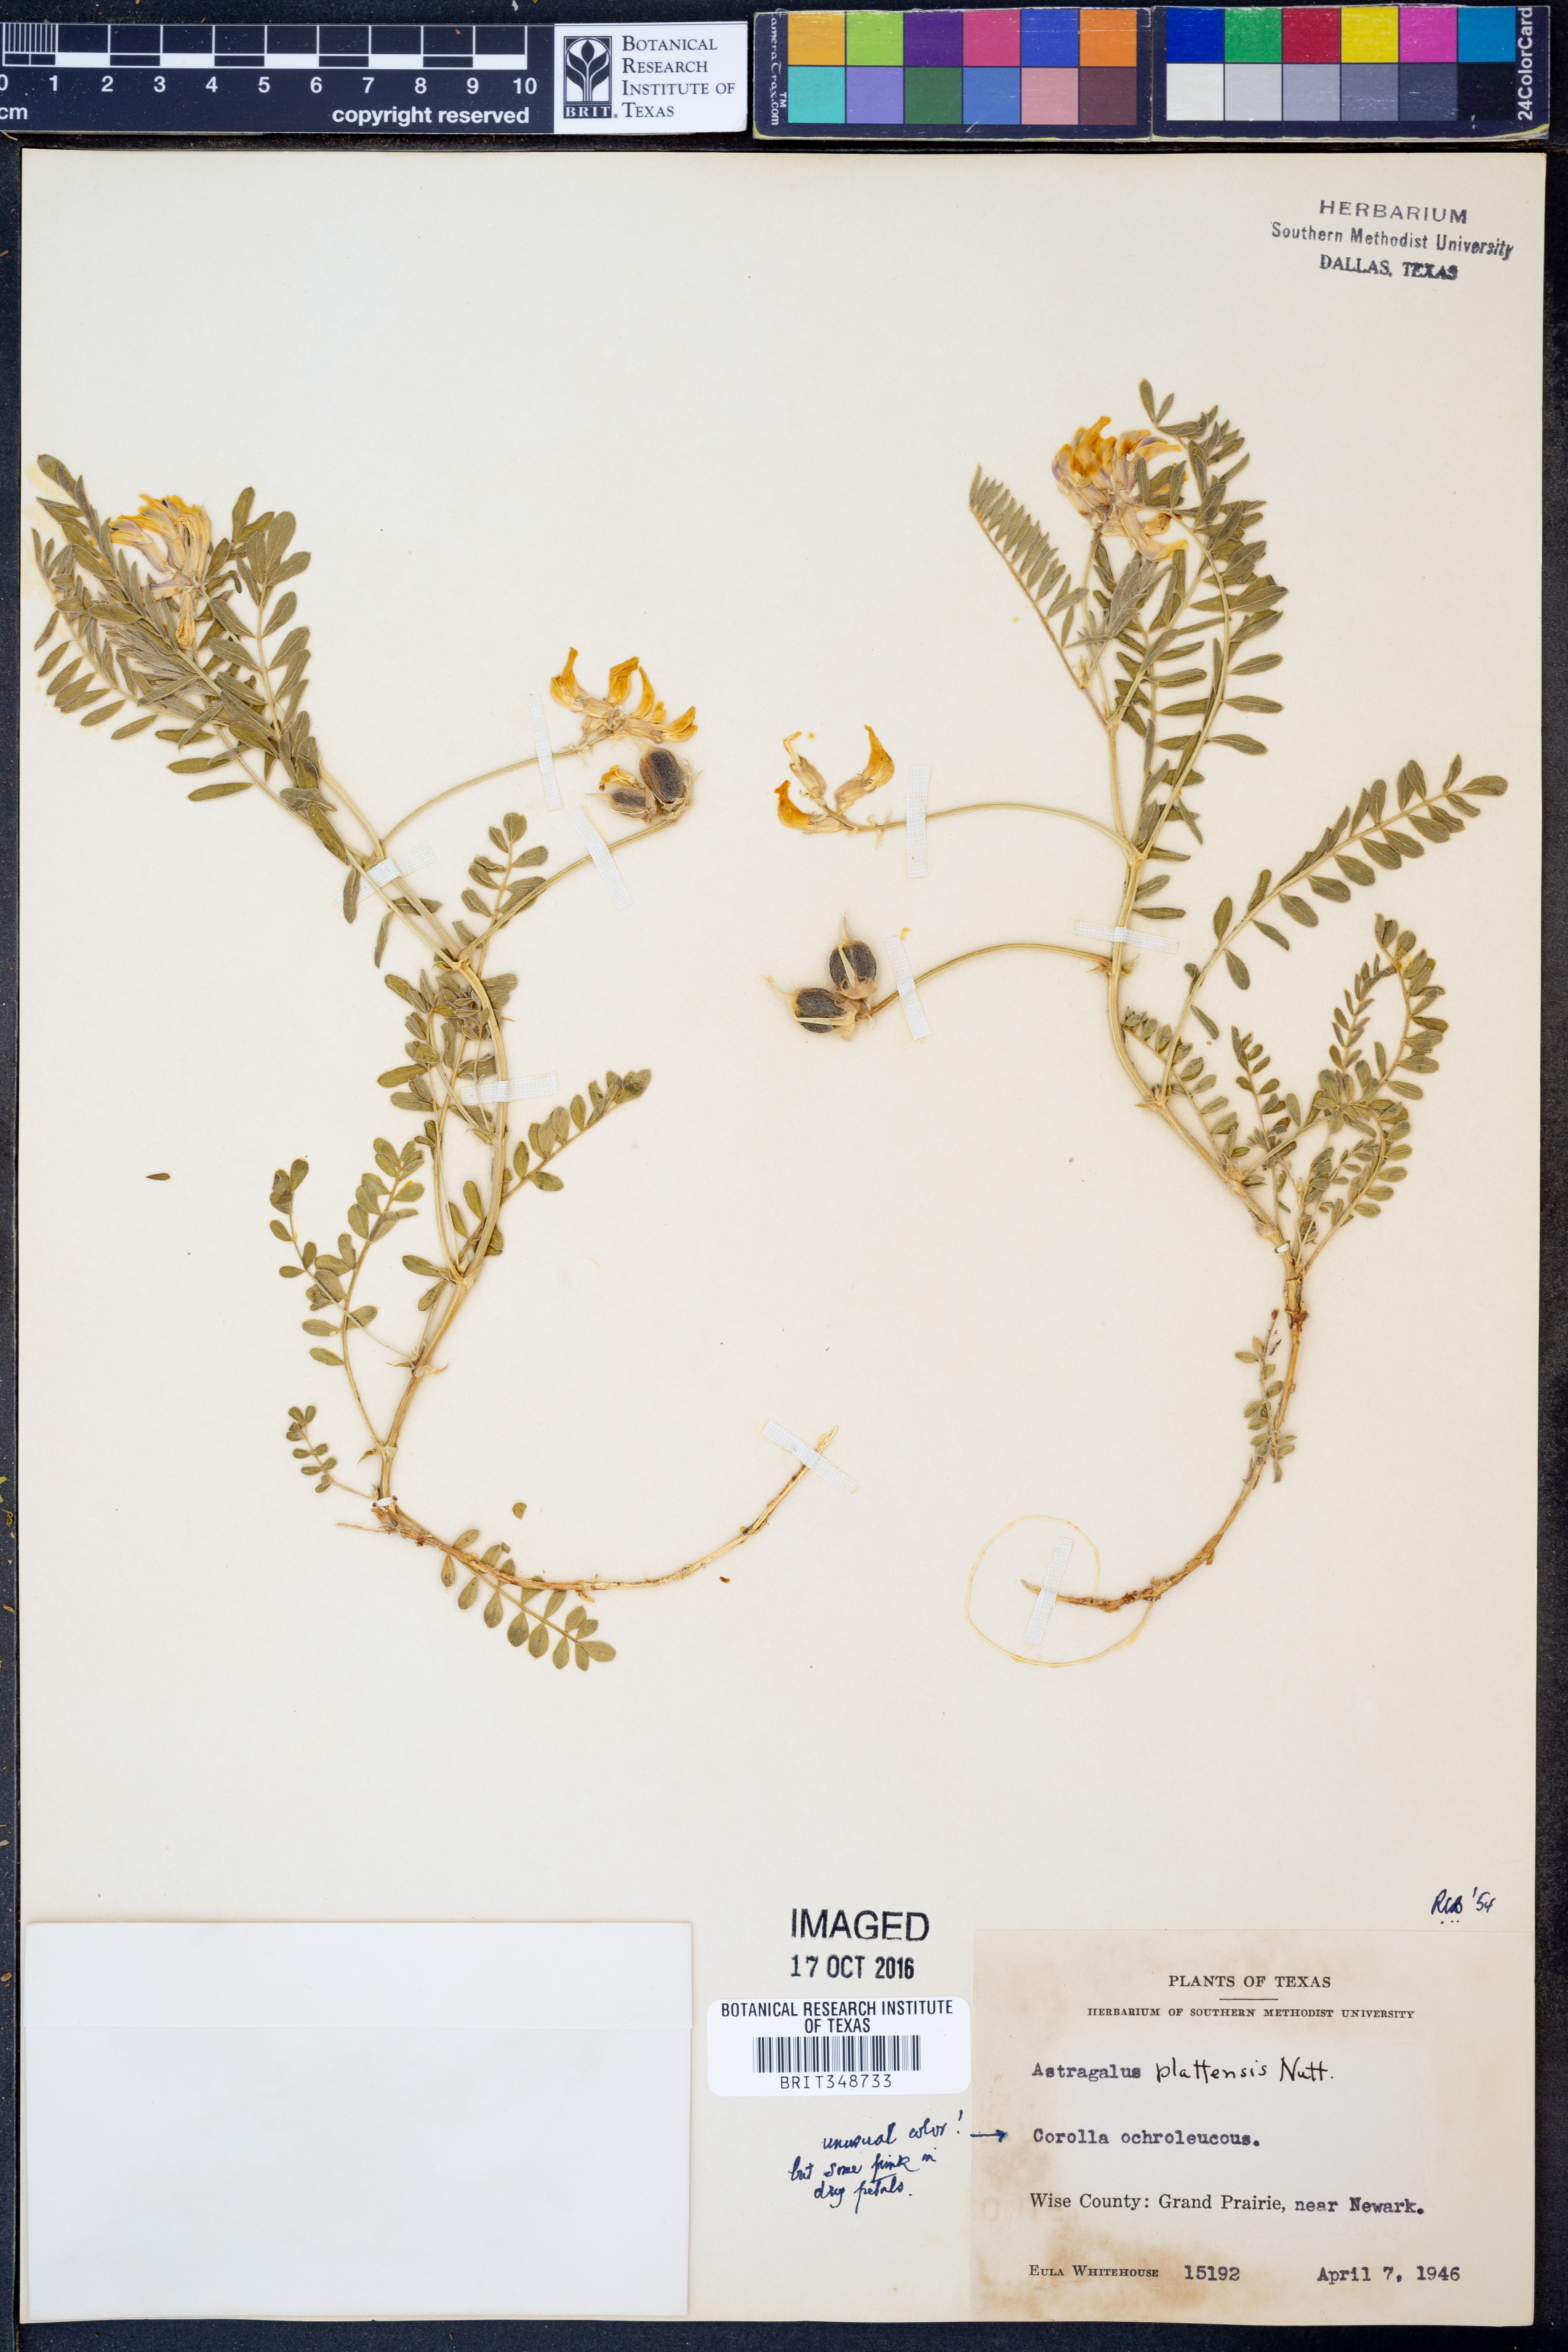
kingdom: Plantae
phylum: Tracheophyta
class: Magnoliopsida
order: Fabales
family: Fabaceae
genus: Astragalus
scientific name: Astragalus plattensis
